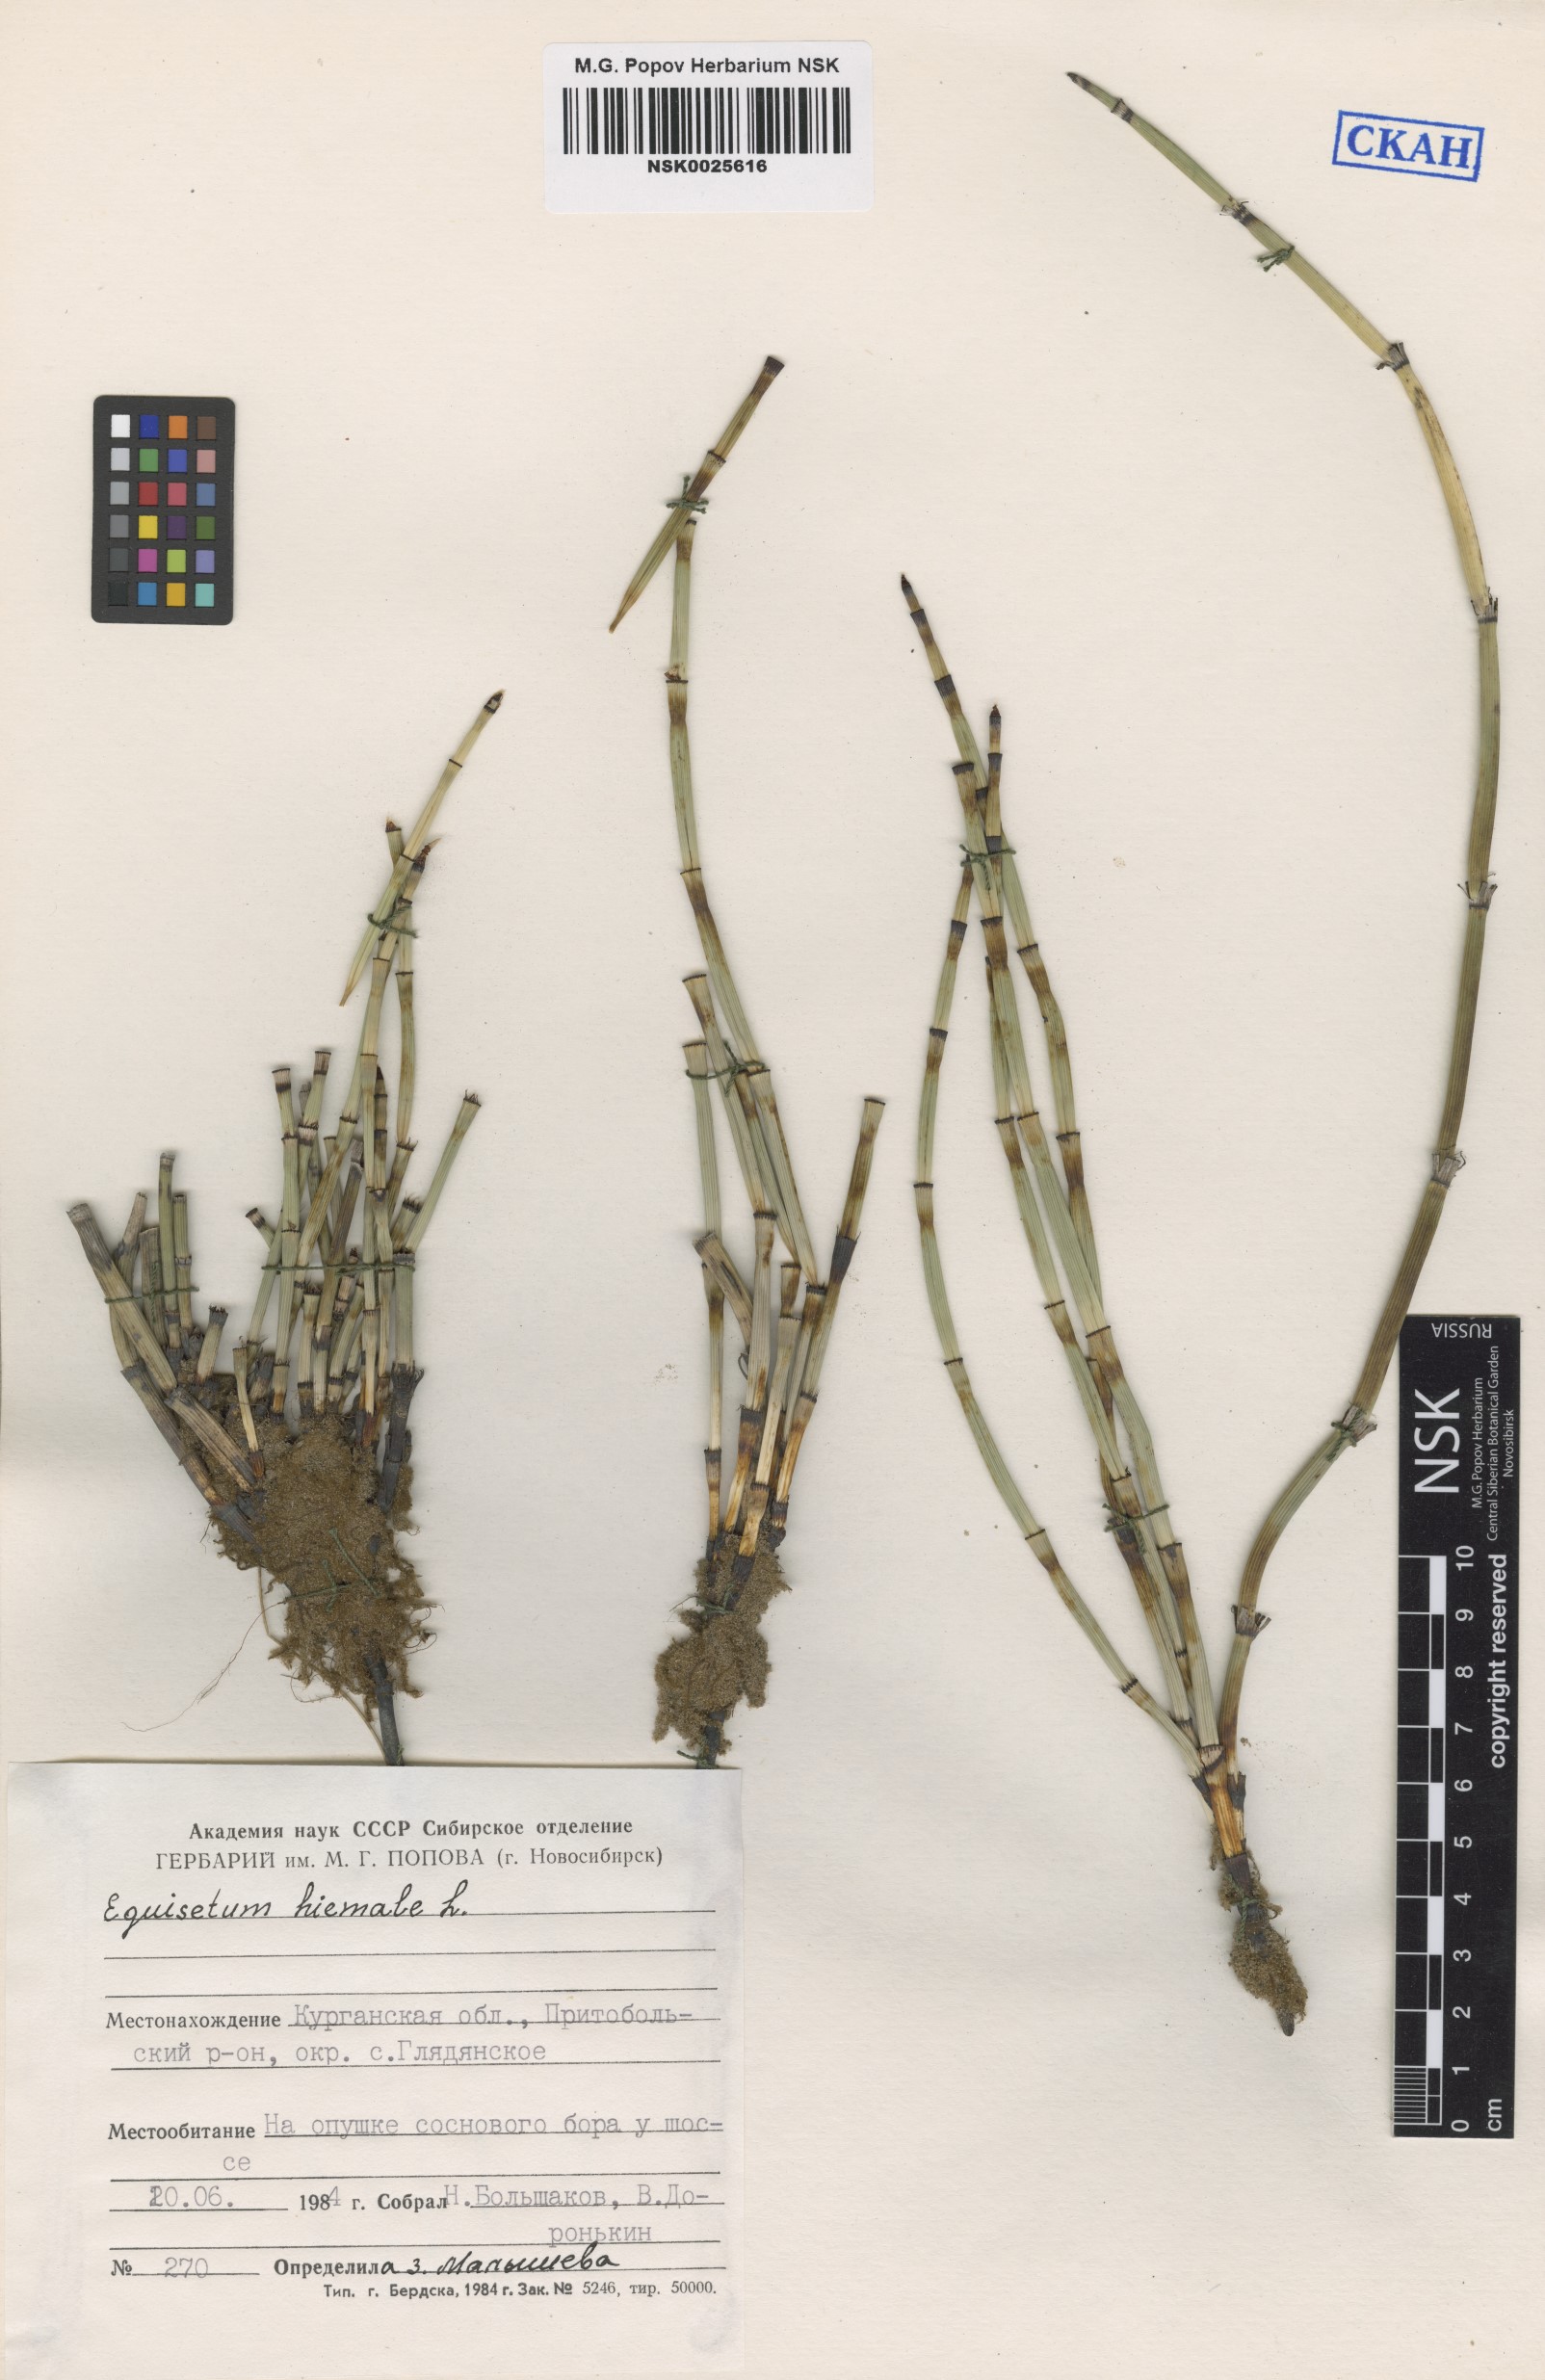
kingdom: Plantae
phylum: Tracheophyta
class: Polypodiopsida
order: Equisetales
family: Equisetaceae
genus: Equisetum
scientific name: Equisetum hyemale
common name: Rough horsetail
